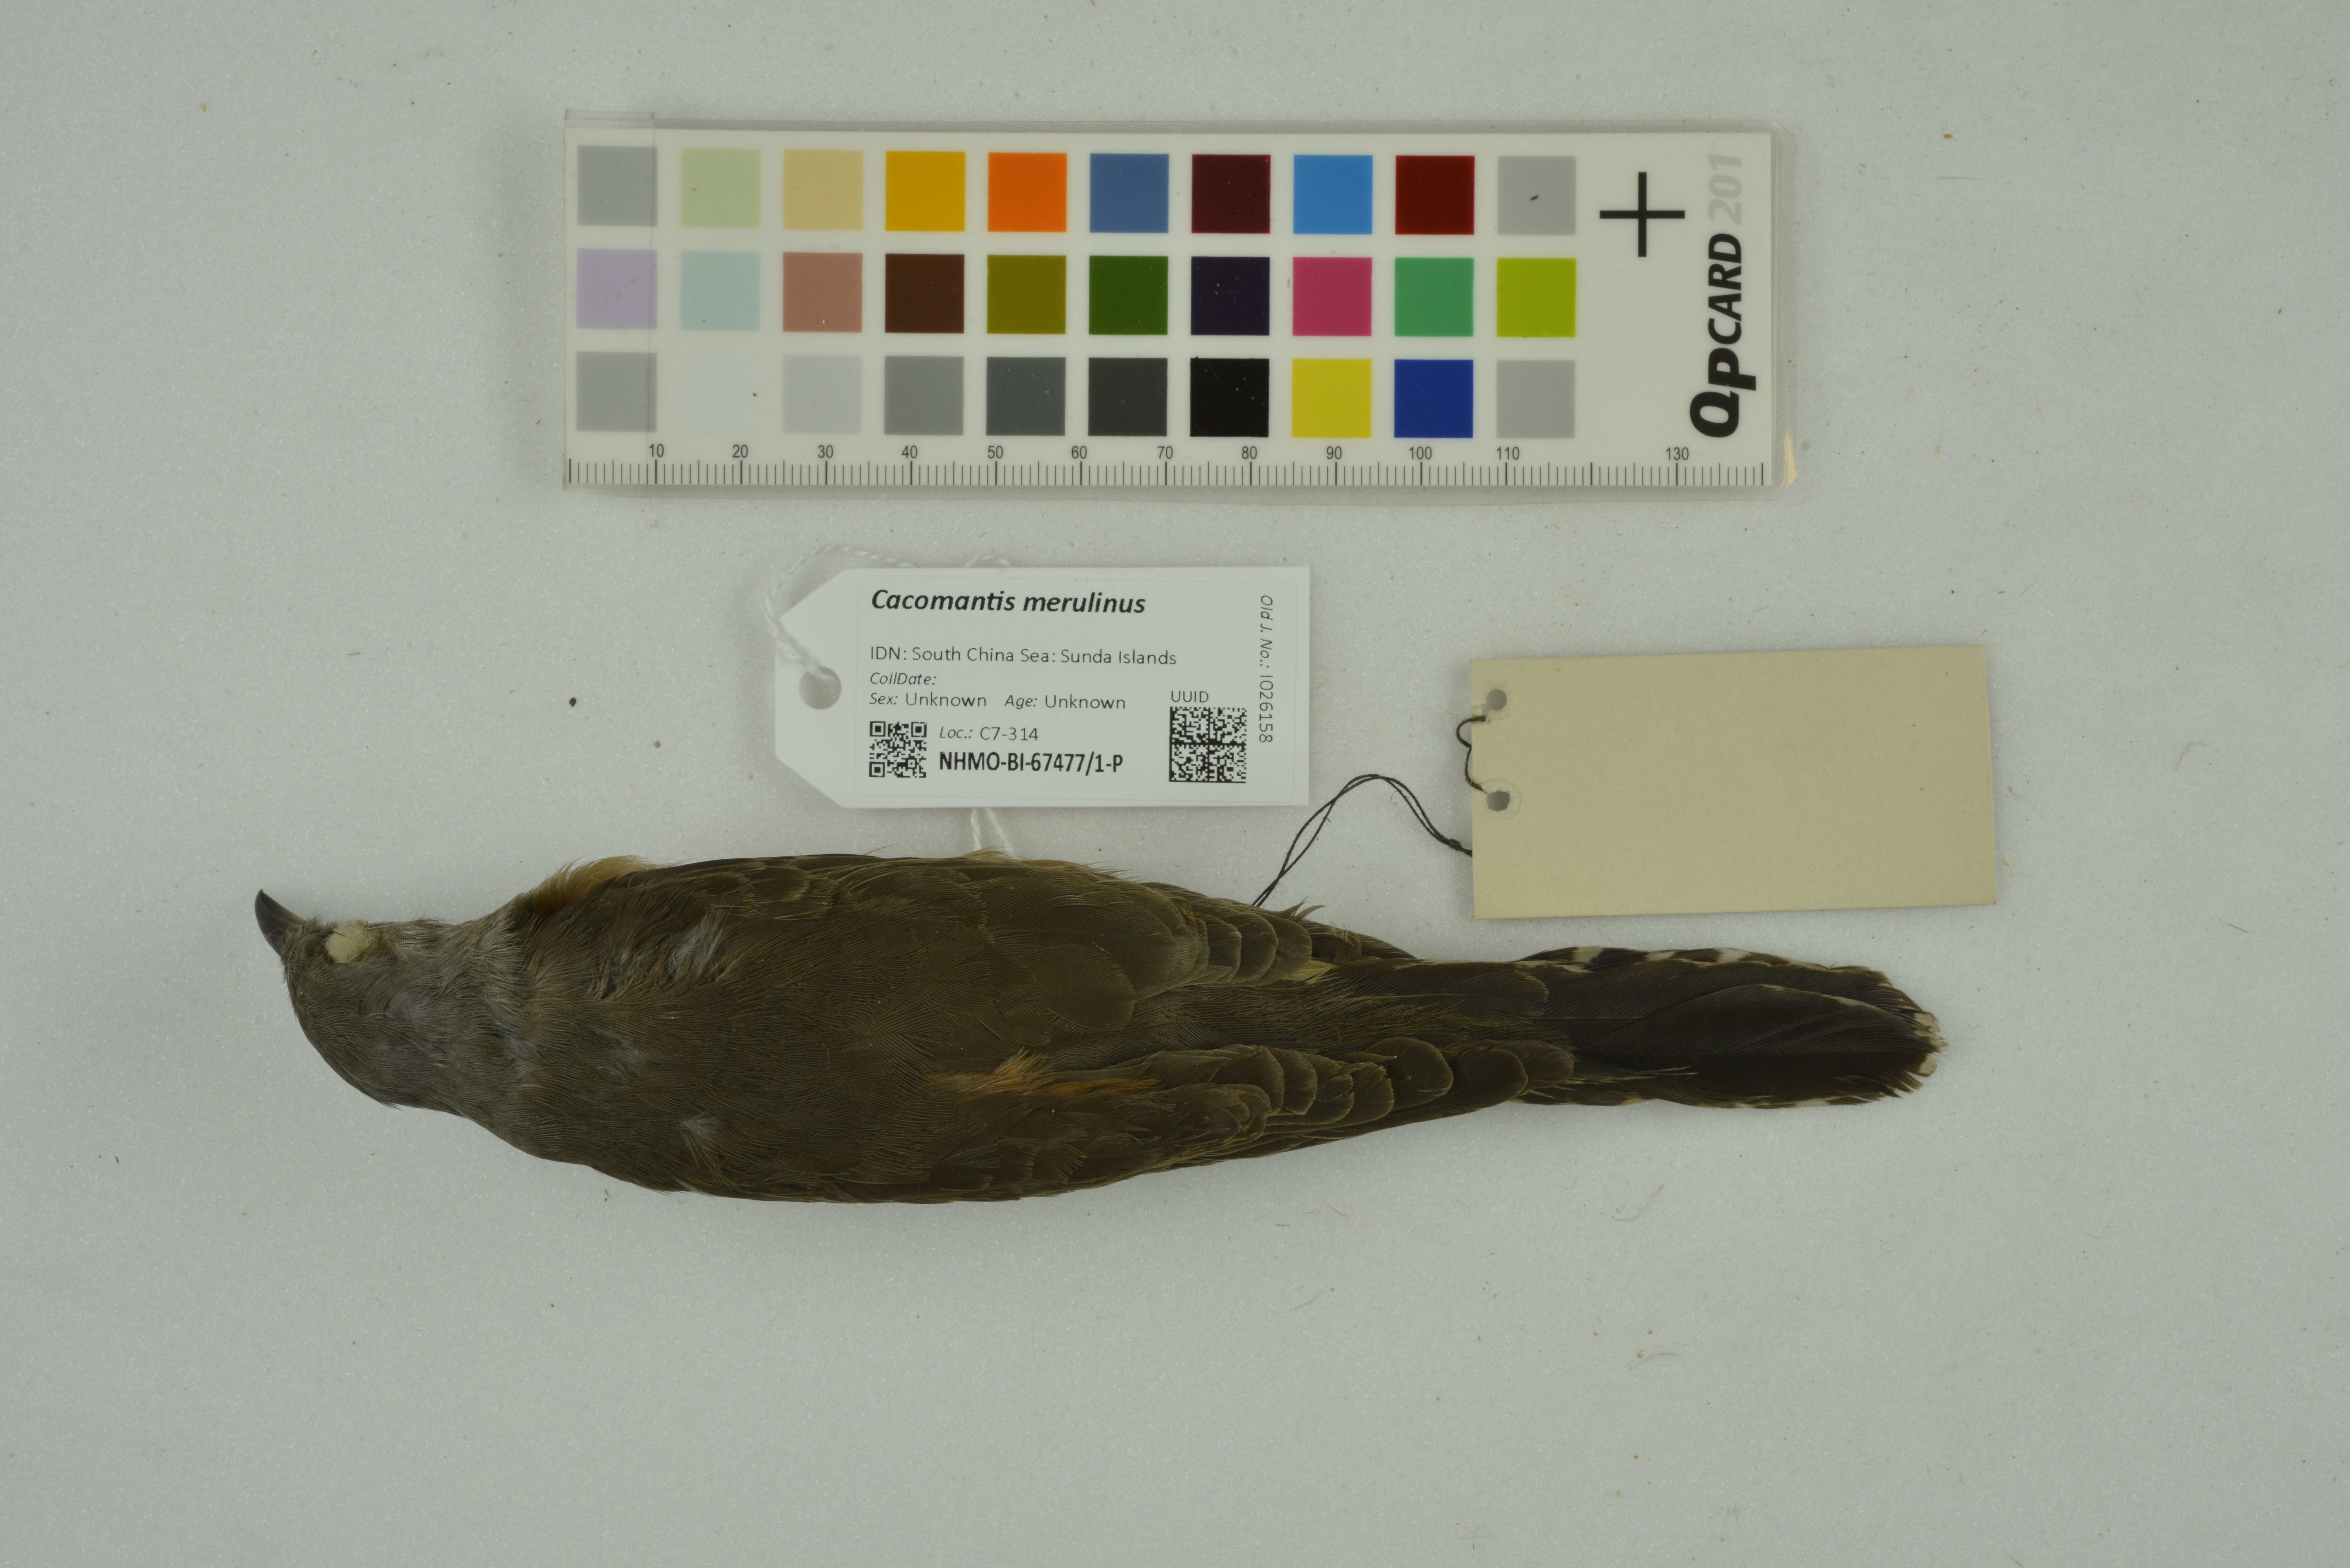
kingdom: Animalia
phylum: Chordata
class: Aves
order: Cuculiformes
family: Cuculidae
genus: Cacomantis
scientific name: Cacomantis merulinus
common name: Plaintive cuckoo
